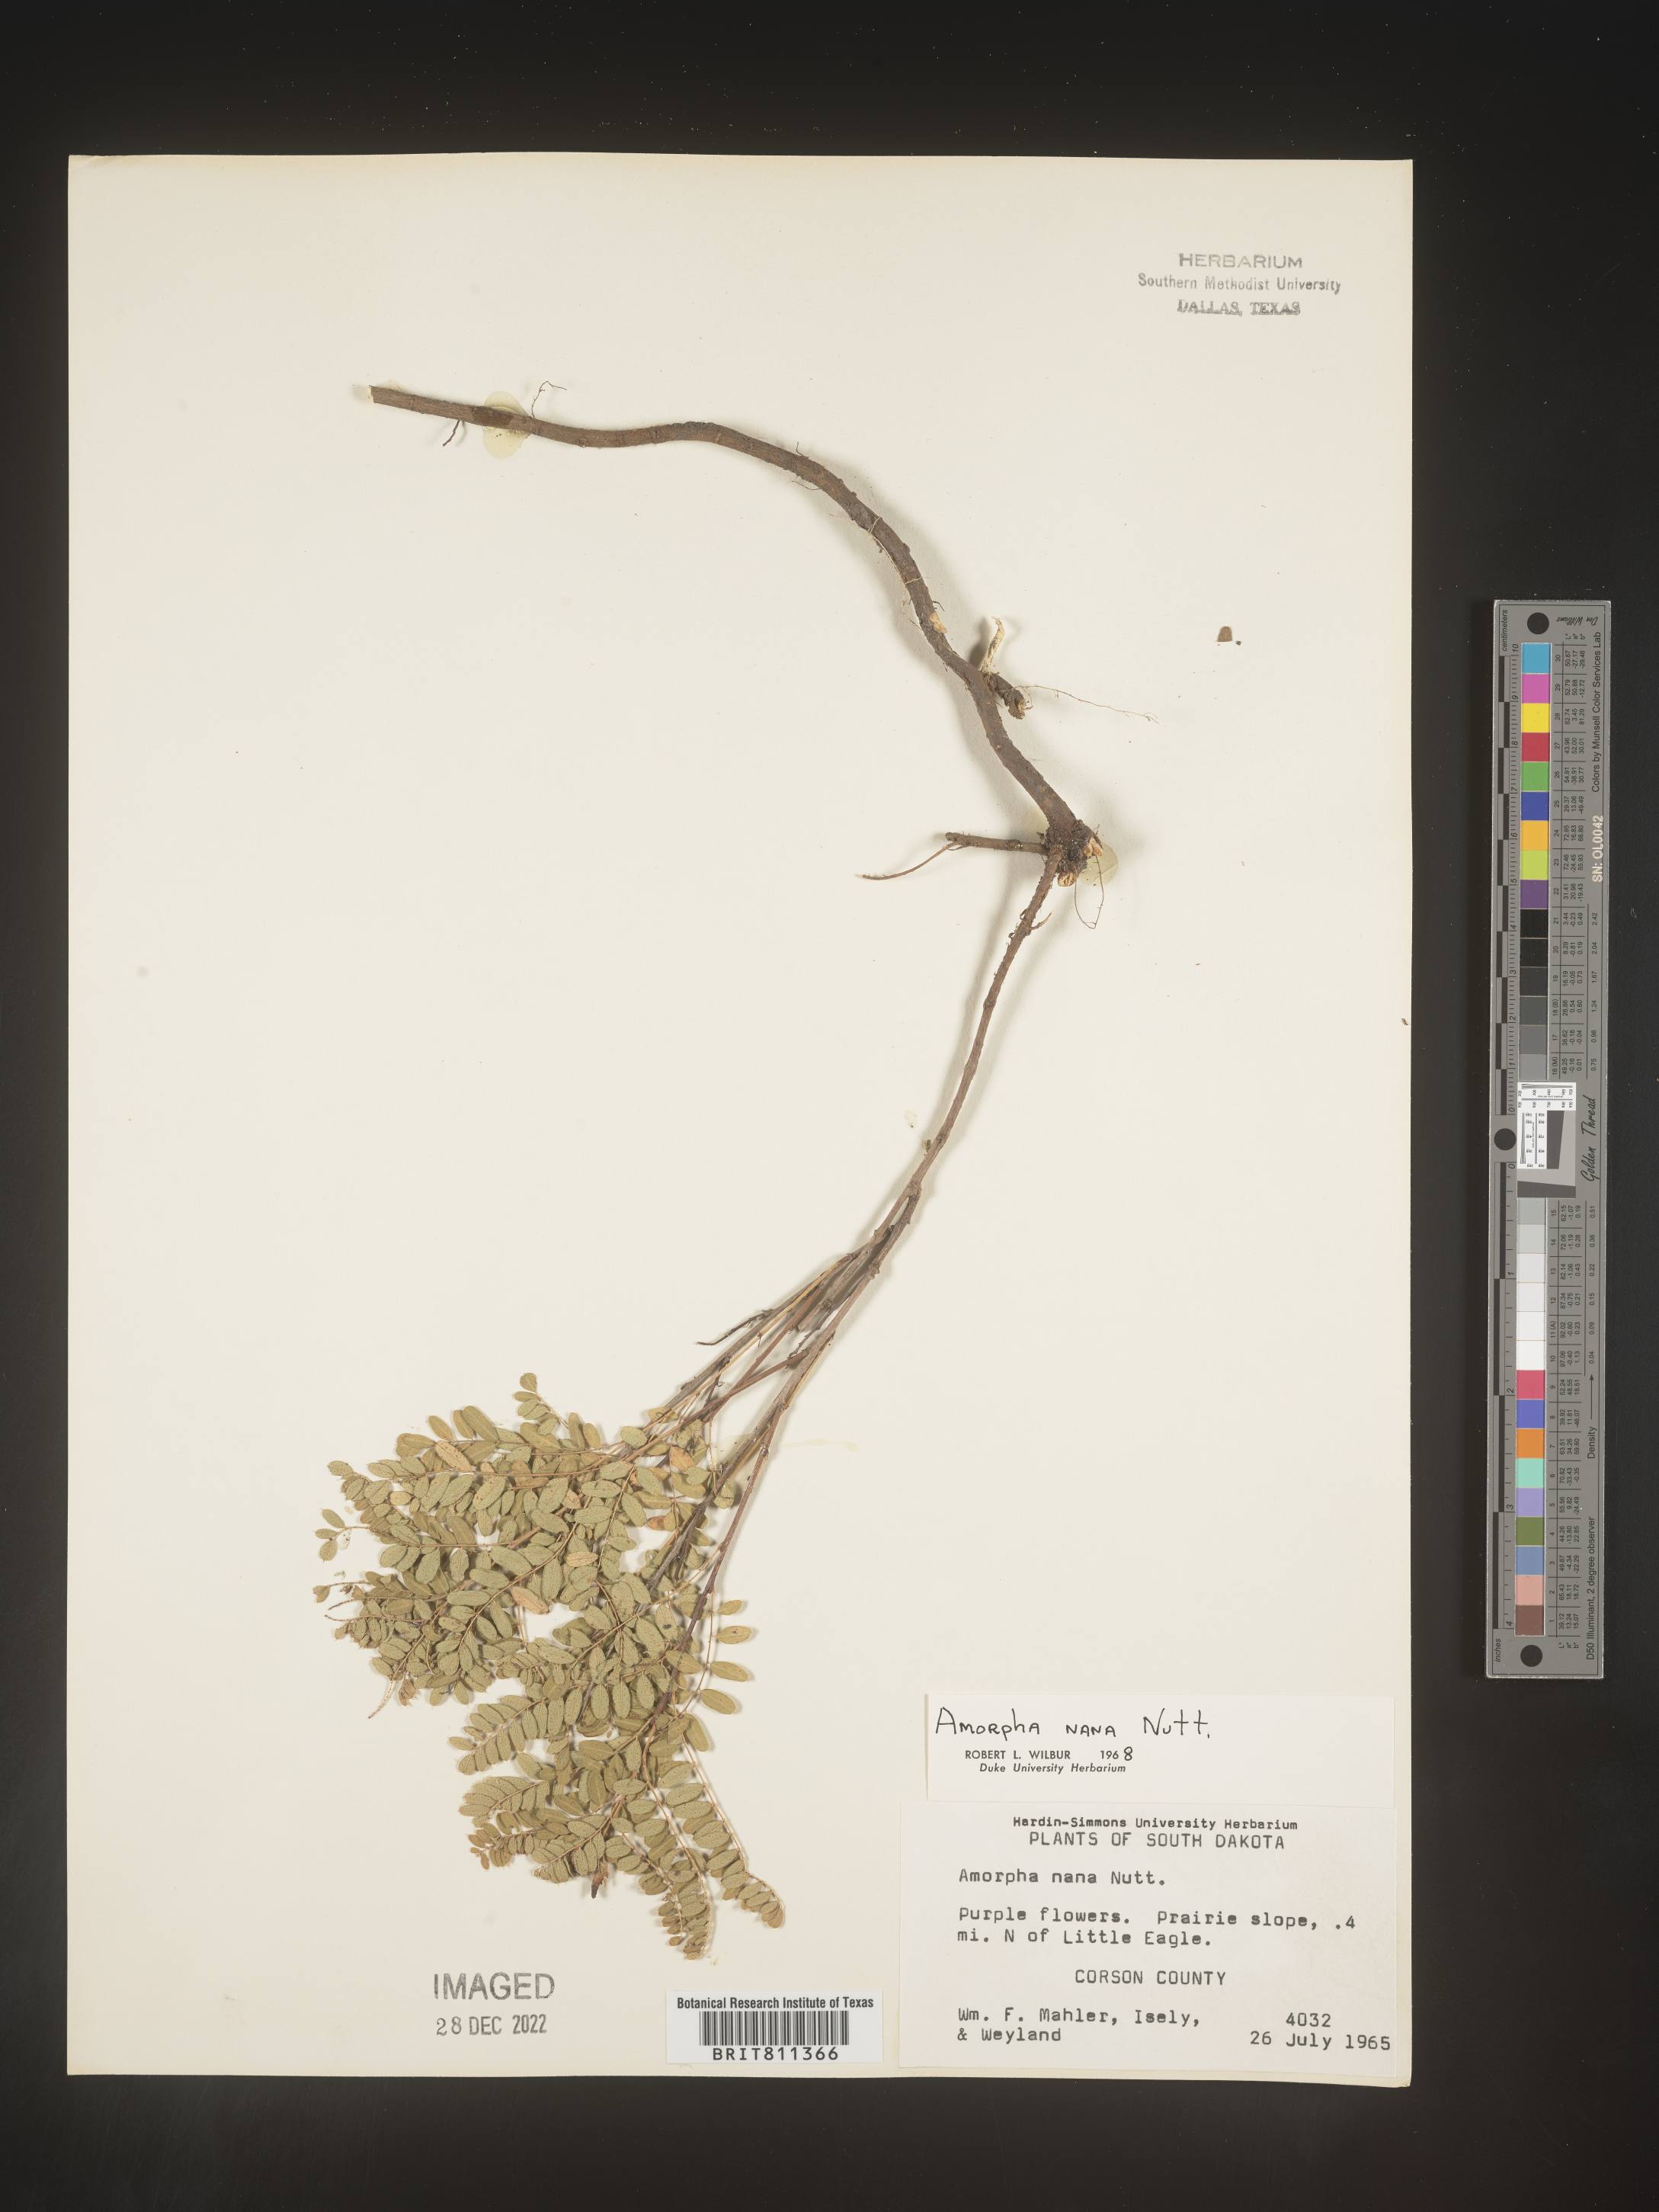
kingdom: Plantae
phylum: Tracheophyta
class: Magnoliopsida
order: Fabales
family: Fabaceae
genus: Amorpha
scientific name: Amorpha nana
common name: Fragrant false indigo
